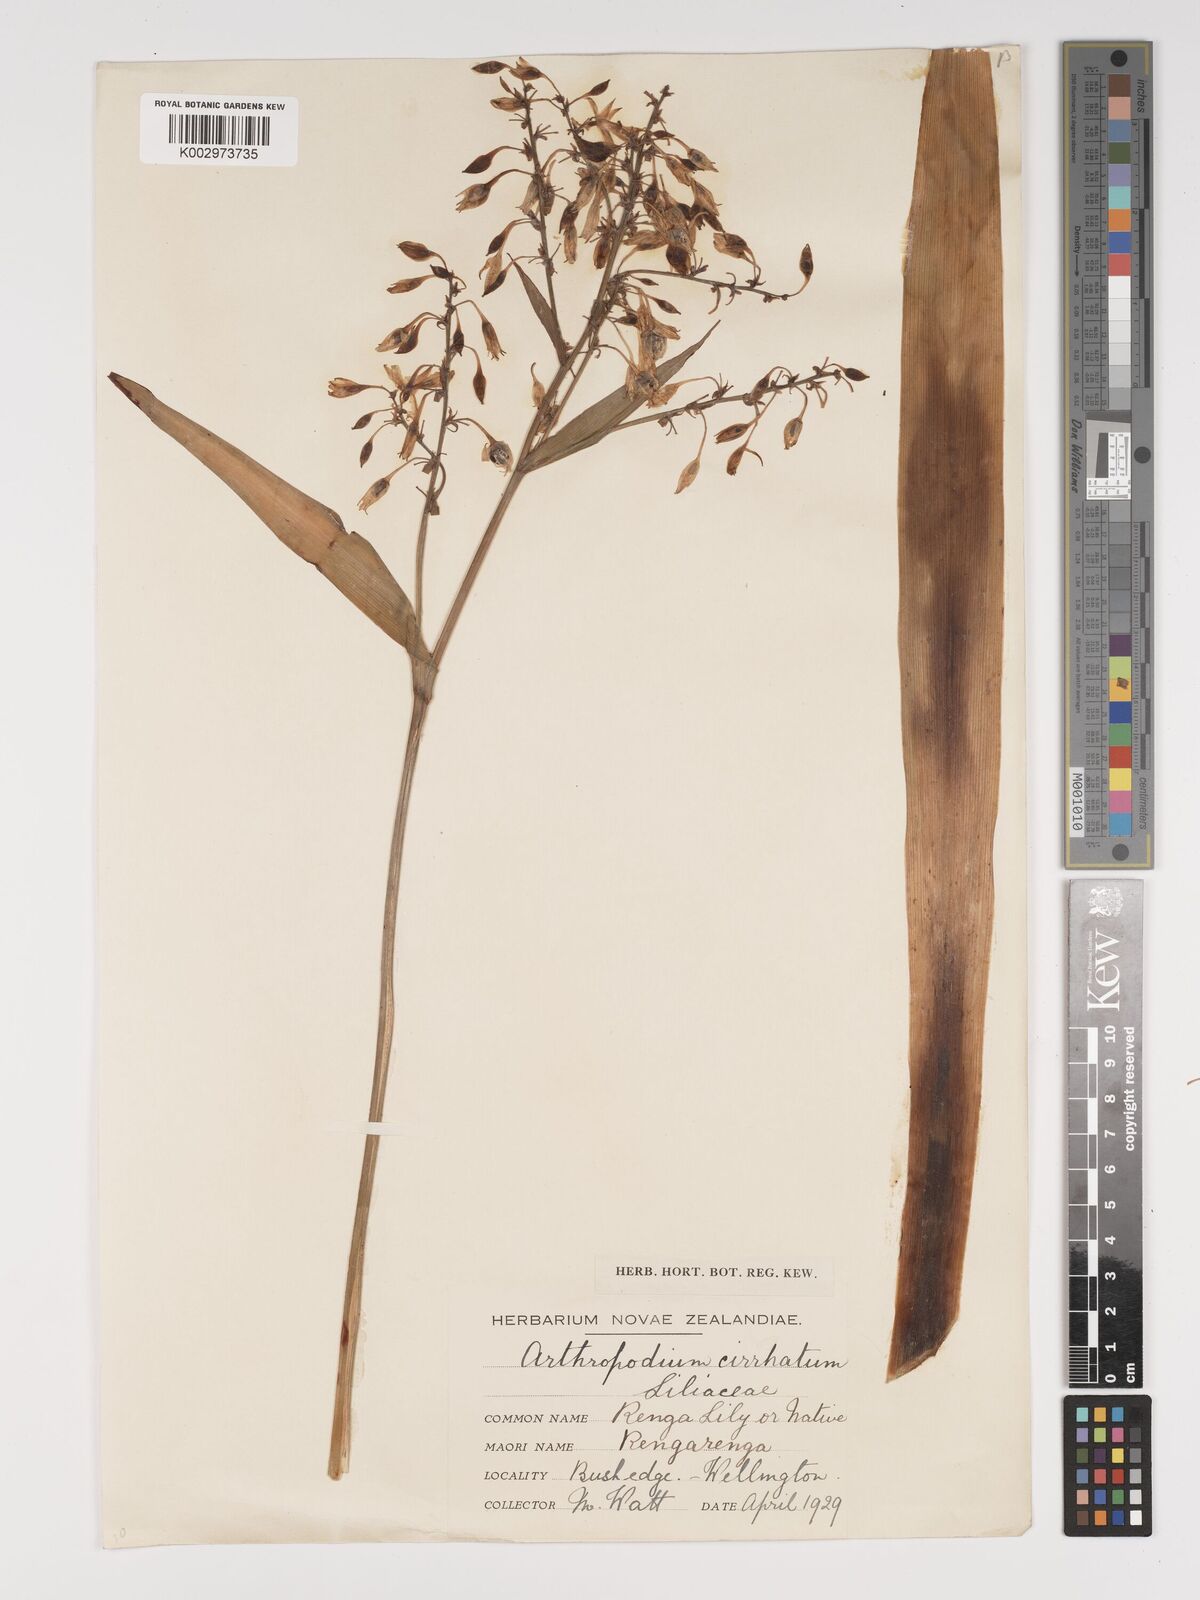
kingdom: Plantae
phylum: Tracheophyta
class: Liliopsida
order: Asparagales
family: Asparagaceae
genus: Arthropodium
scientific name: Arthropodium cirratum
